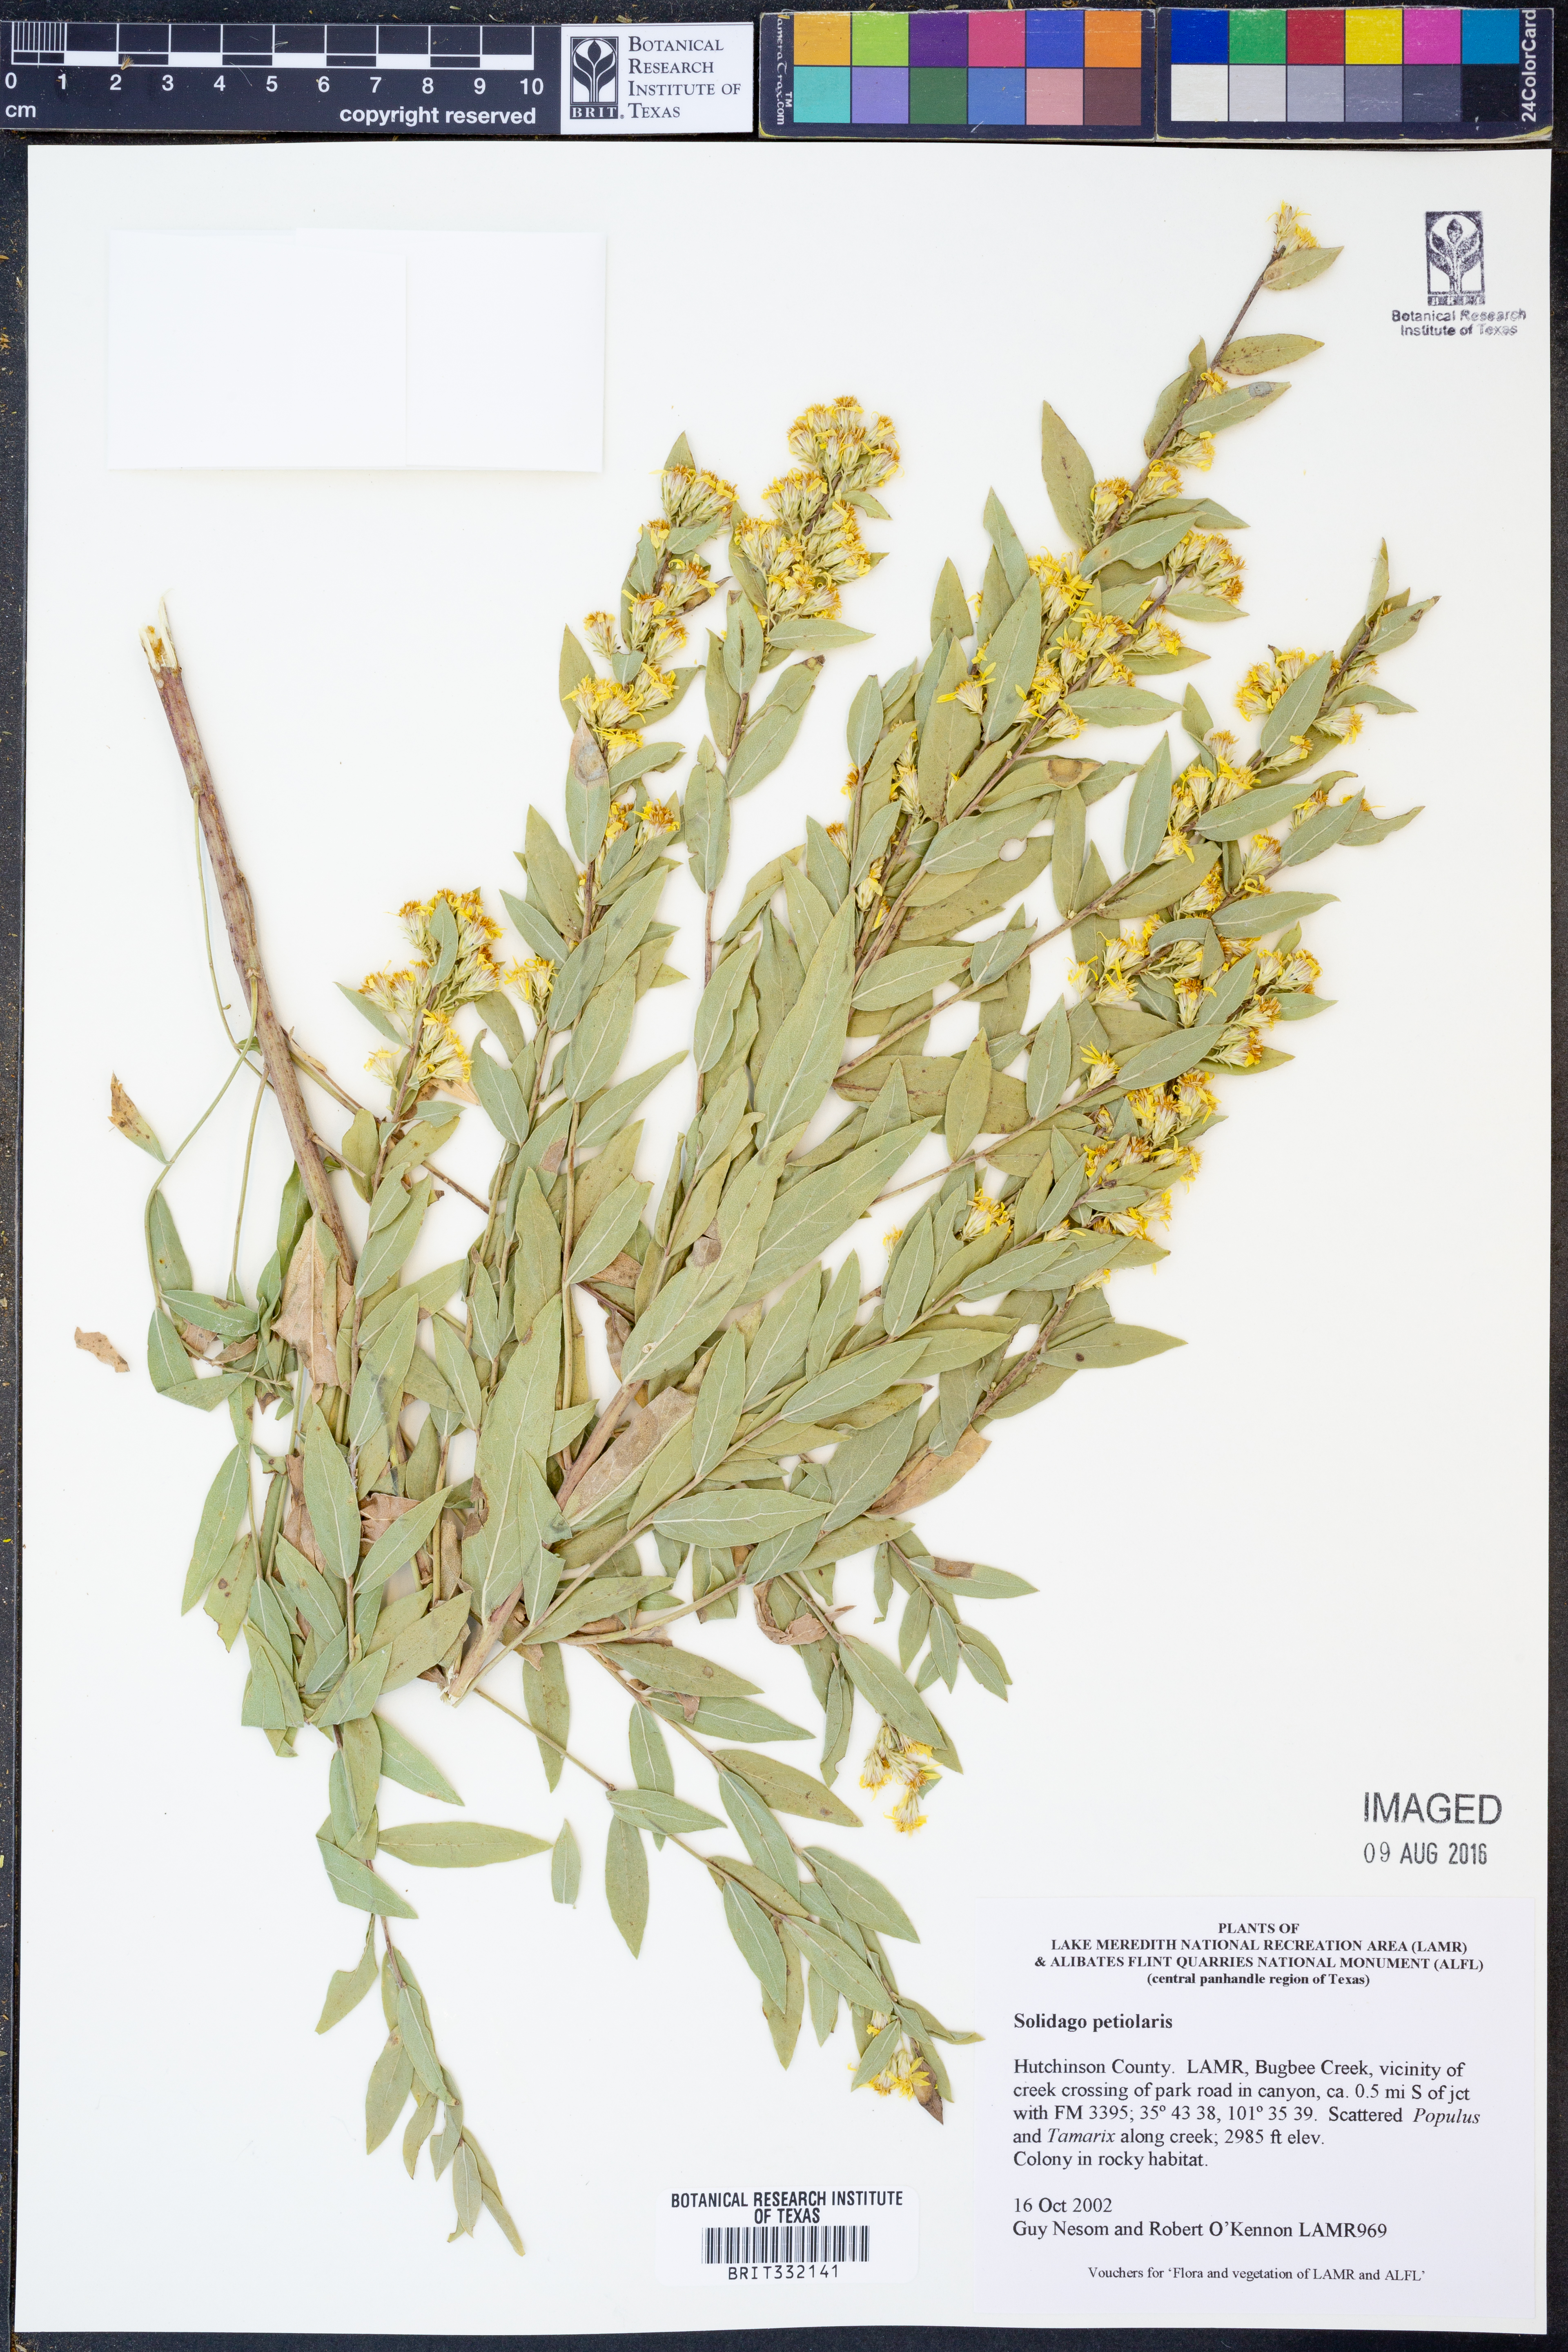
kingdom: Plantae
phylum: Tracheophyta
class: Magnoliopsida
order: Asterales
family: Asteraceae
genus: Solidago
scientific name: Solidago petiolaris
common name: Downy ragged goldenrod
